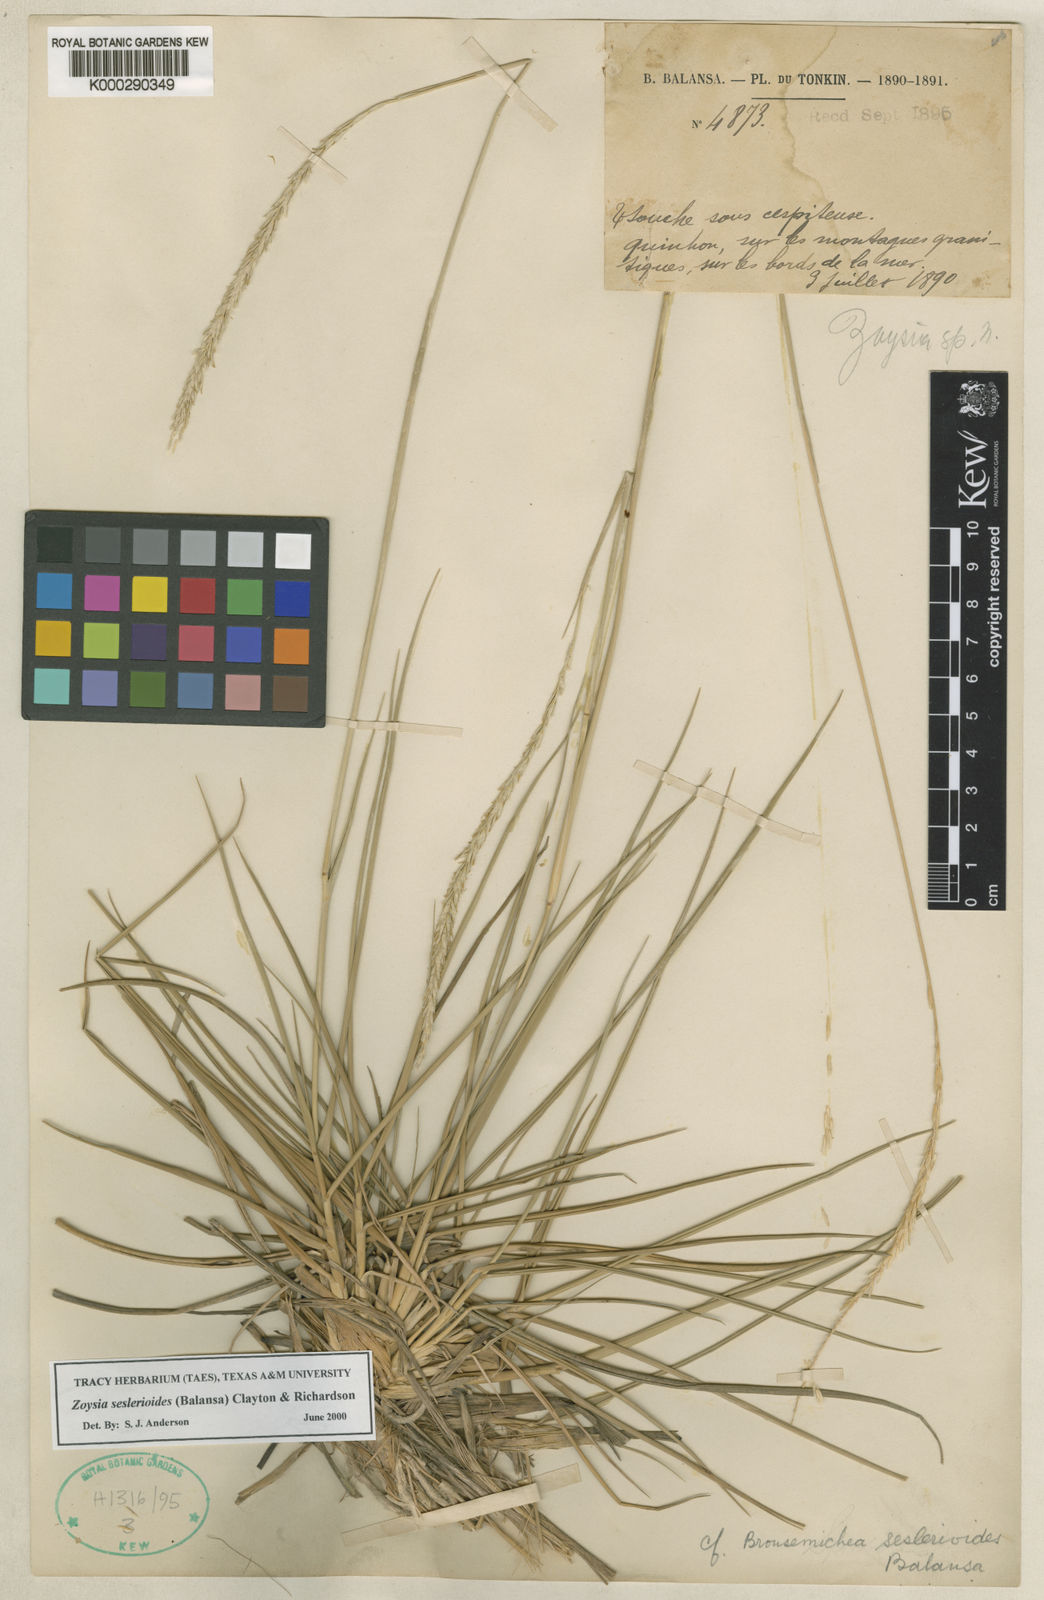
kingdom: Plantae
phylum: Tracheophyta
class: Liliopsida
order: Poales
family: Poaceae
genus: Zoysia
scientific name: Zoysia seslerioides
